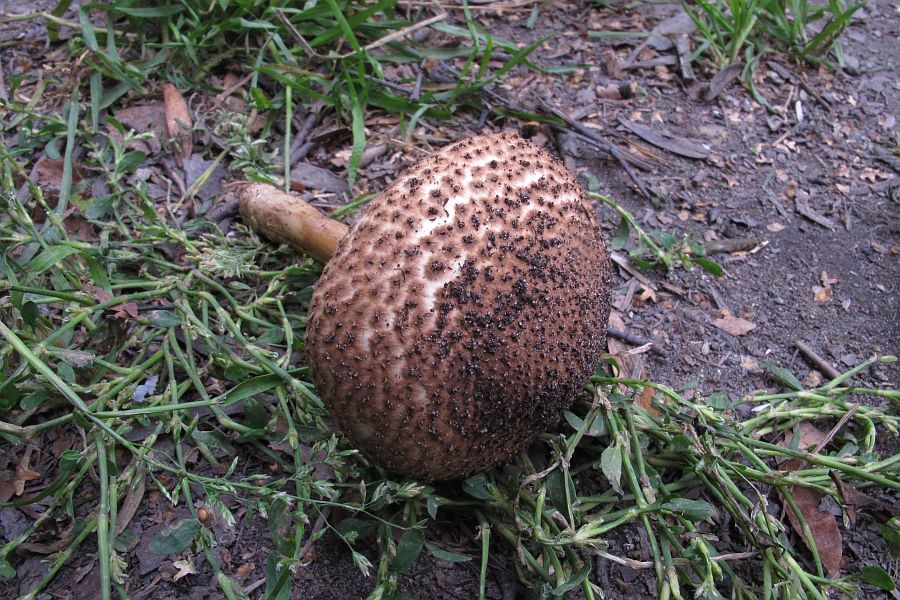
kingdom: Fungi
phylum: Basidiomycota
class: Agaricomycetes
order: Agaricales
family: Agaricaceae
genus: Echinoderma
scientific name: Echinoderma asperum
